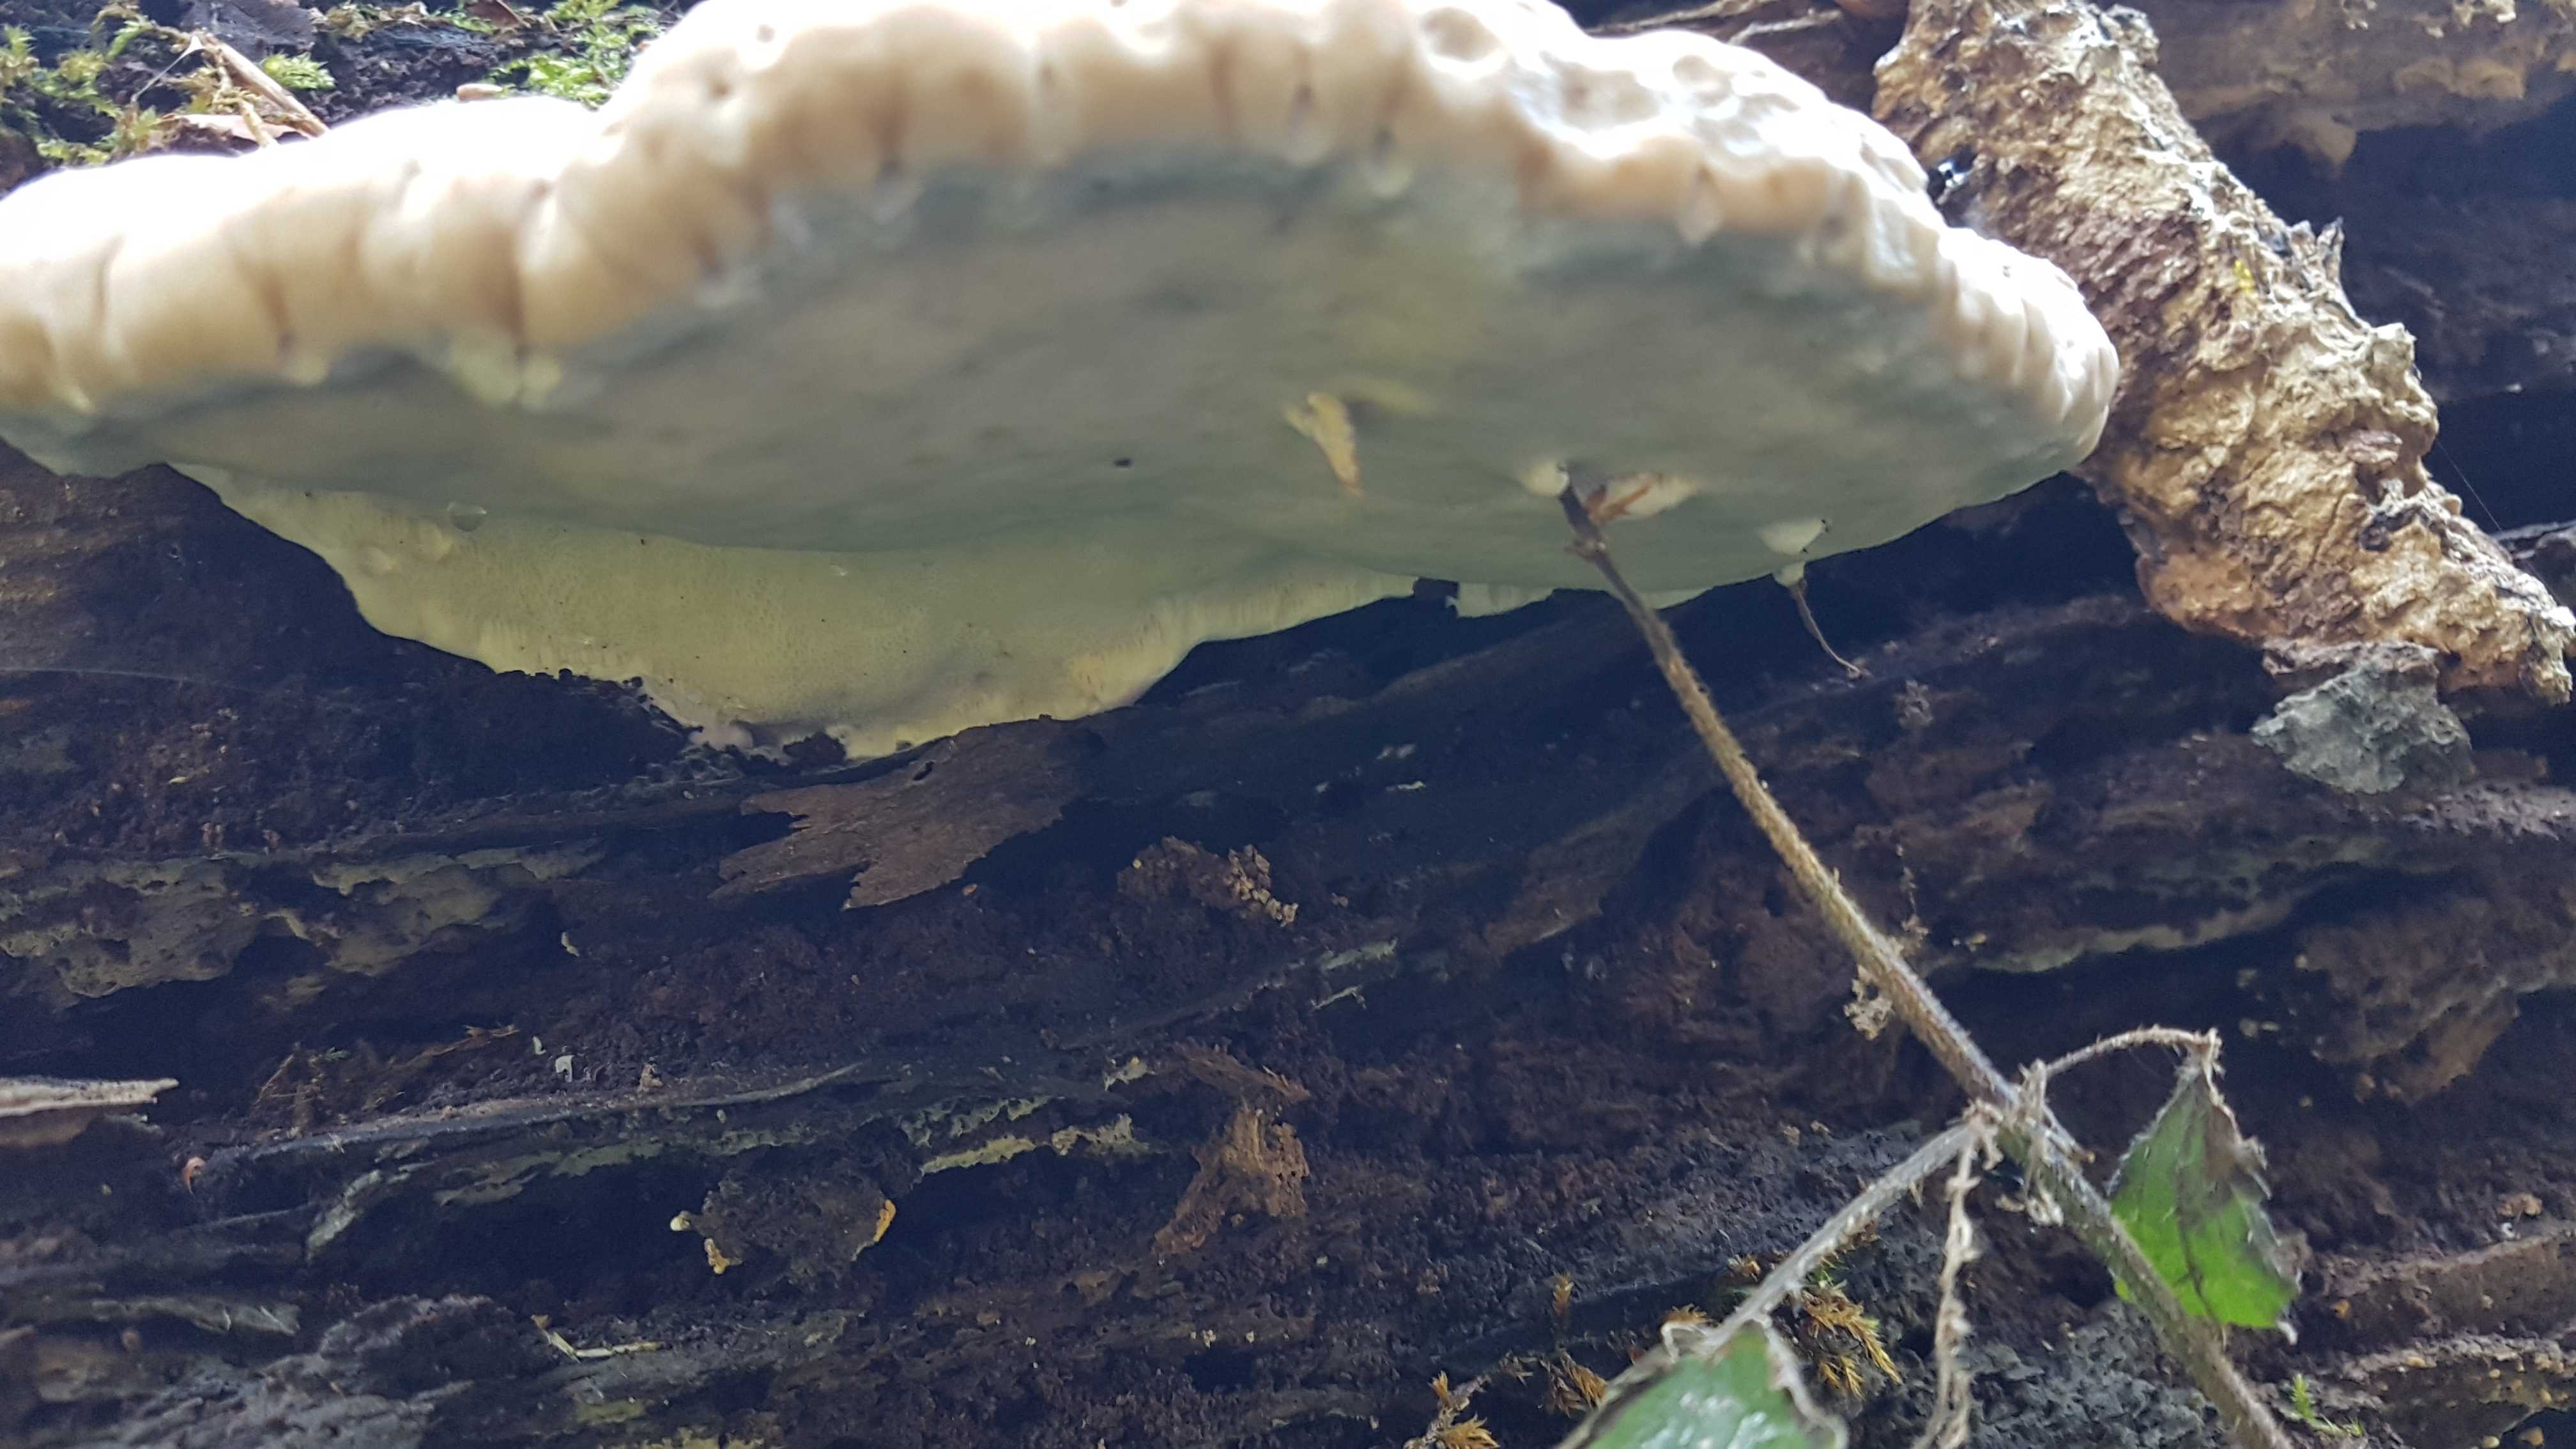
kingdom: Fungi
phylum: Basidiomycota
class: Agaricomycetes
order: Polyporales
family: Fomitopsidaceae
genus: Fomitopsis
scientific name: Fomitopsis pinicola
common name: randbæltet hovporesvamp
